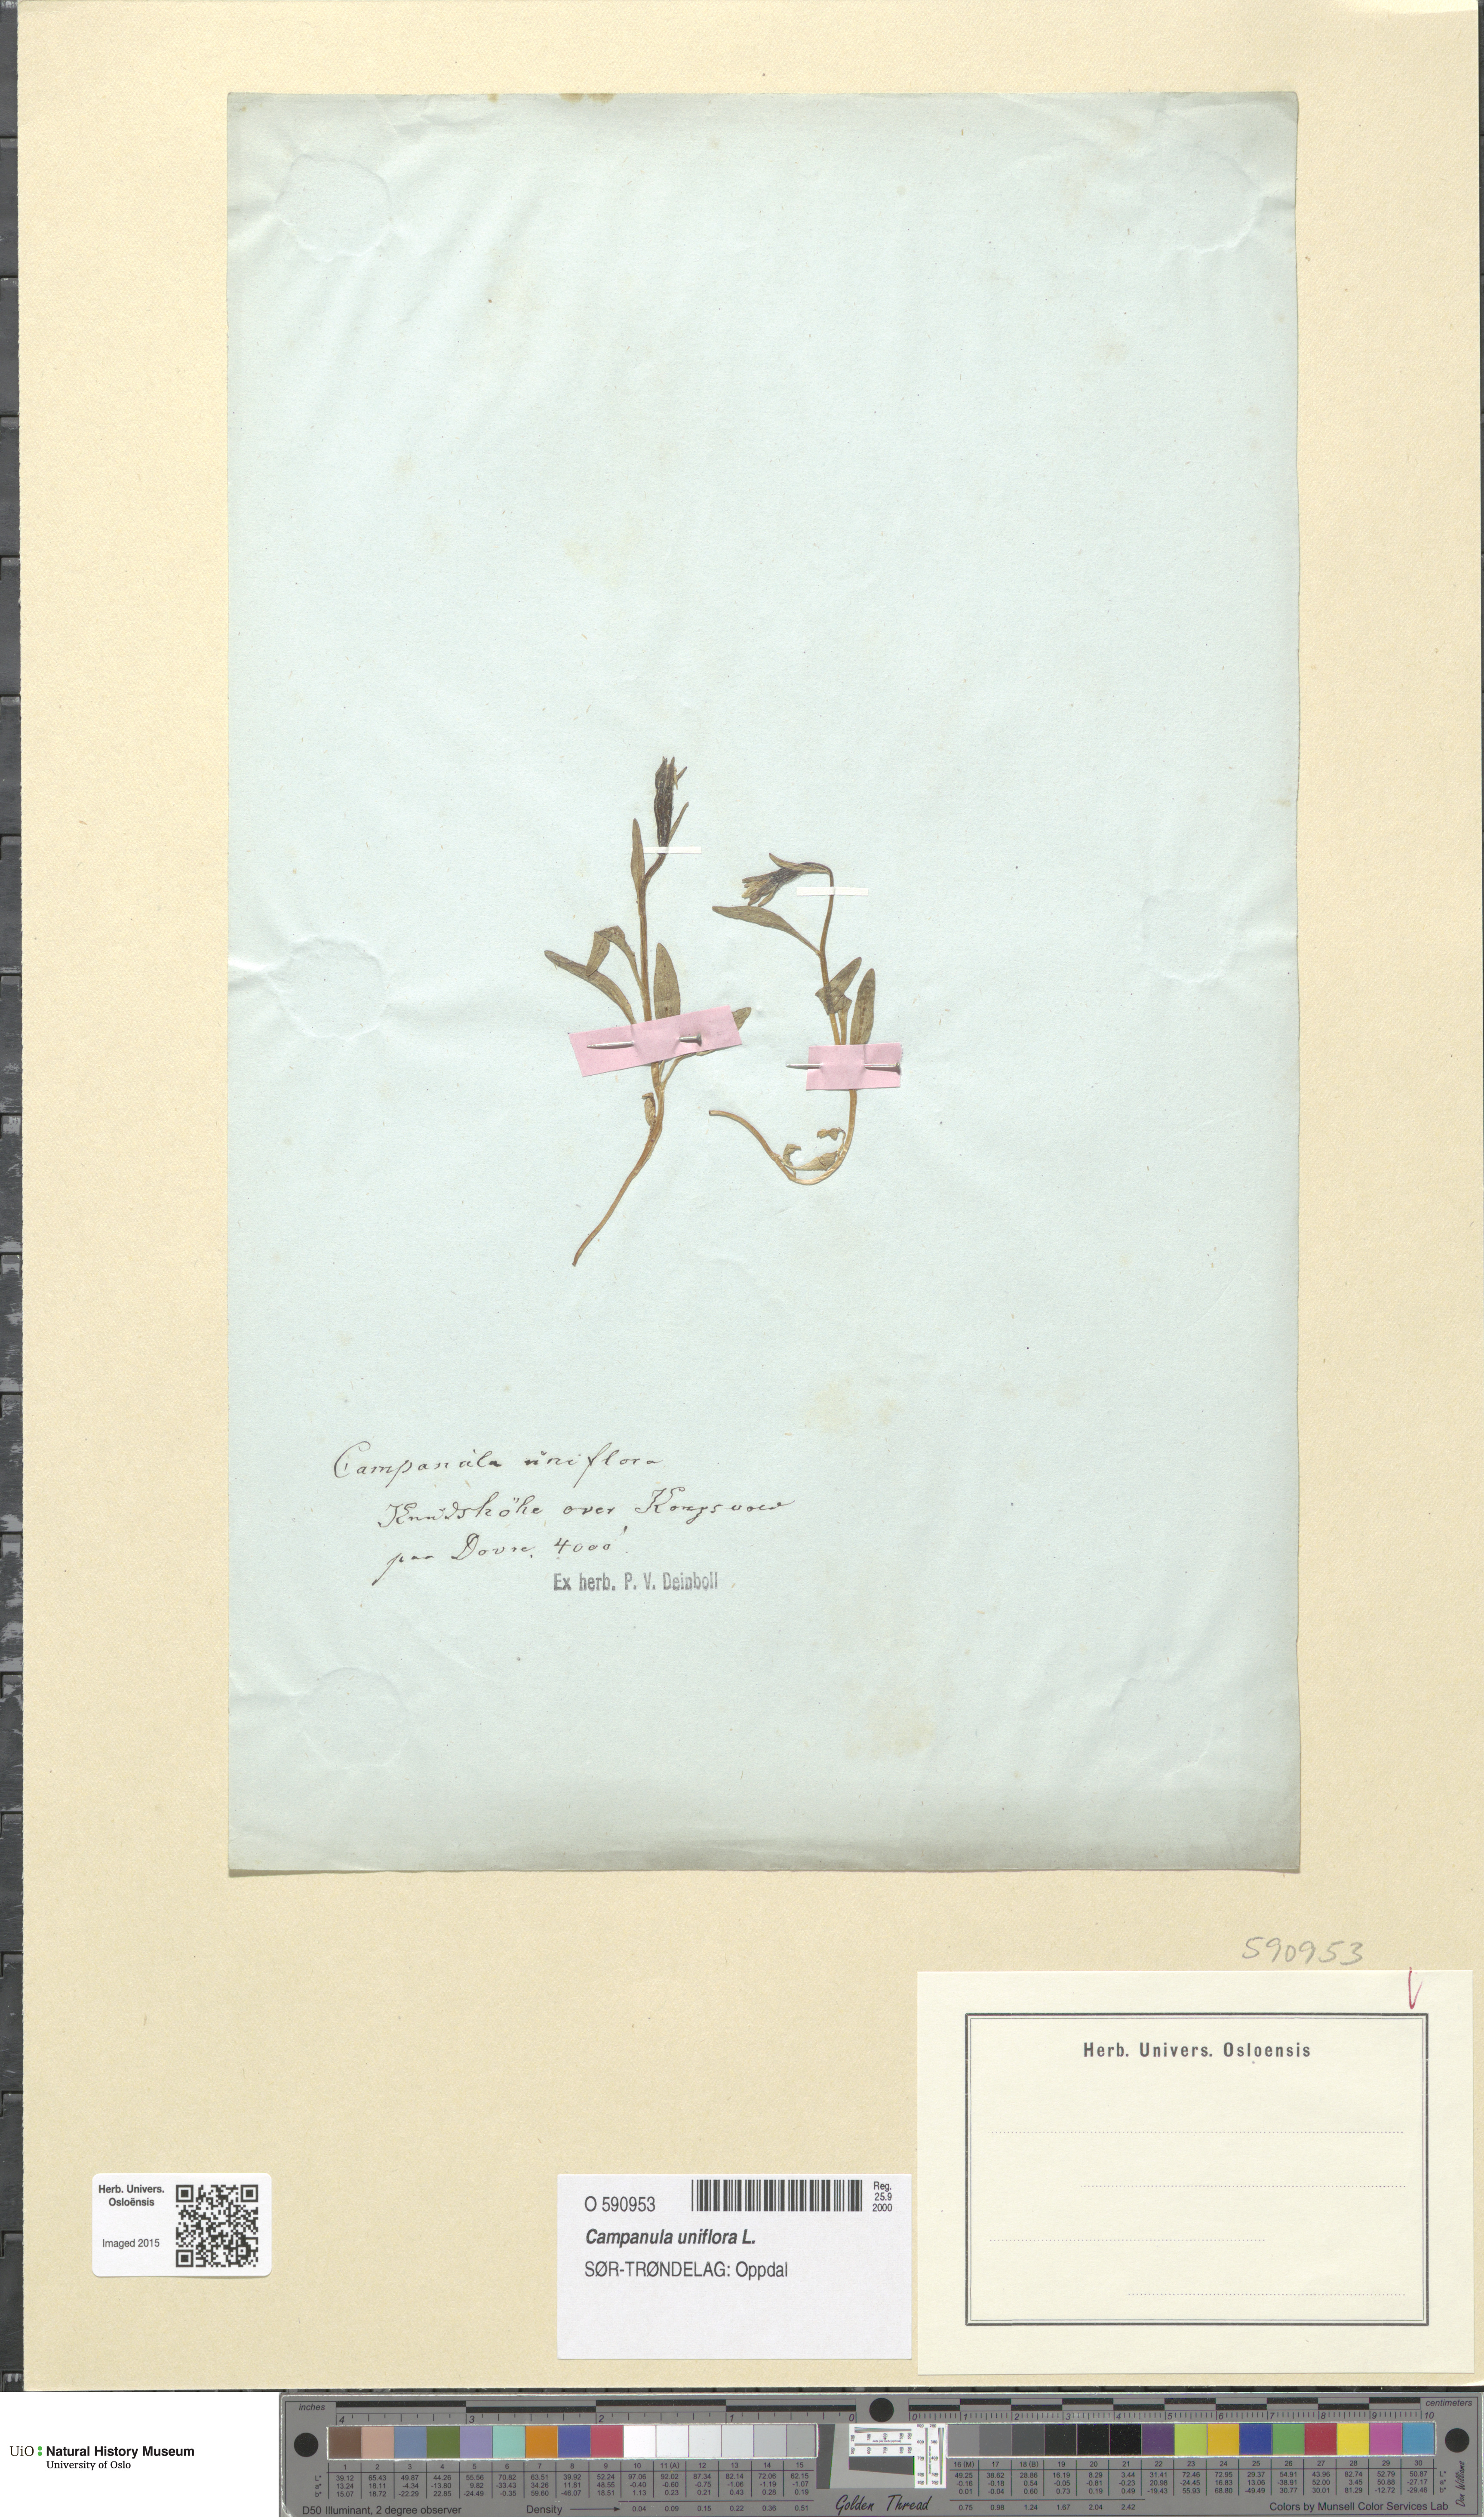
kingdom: Plantae
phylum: Tracheophyta
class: Magnoliopsida
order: Asterales
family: Campanulaceae
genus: Melanocalyx
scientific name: Melanocalyx uniflora
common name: Alpine harebell
